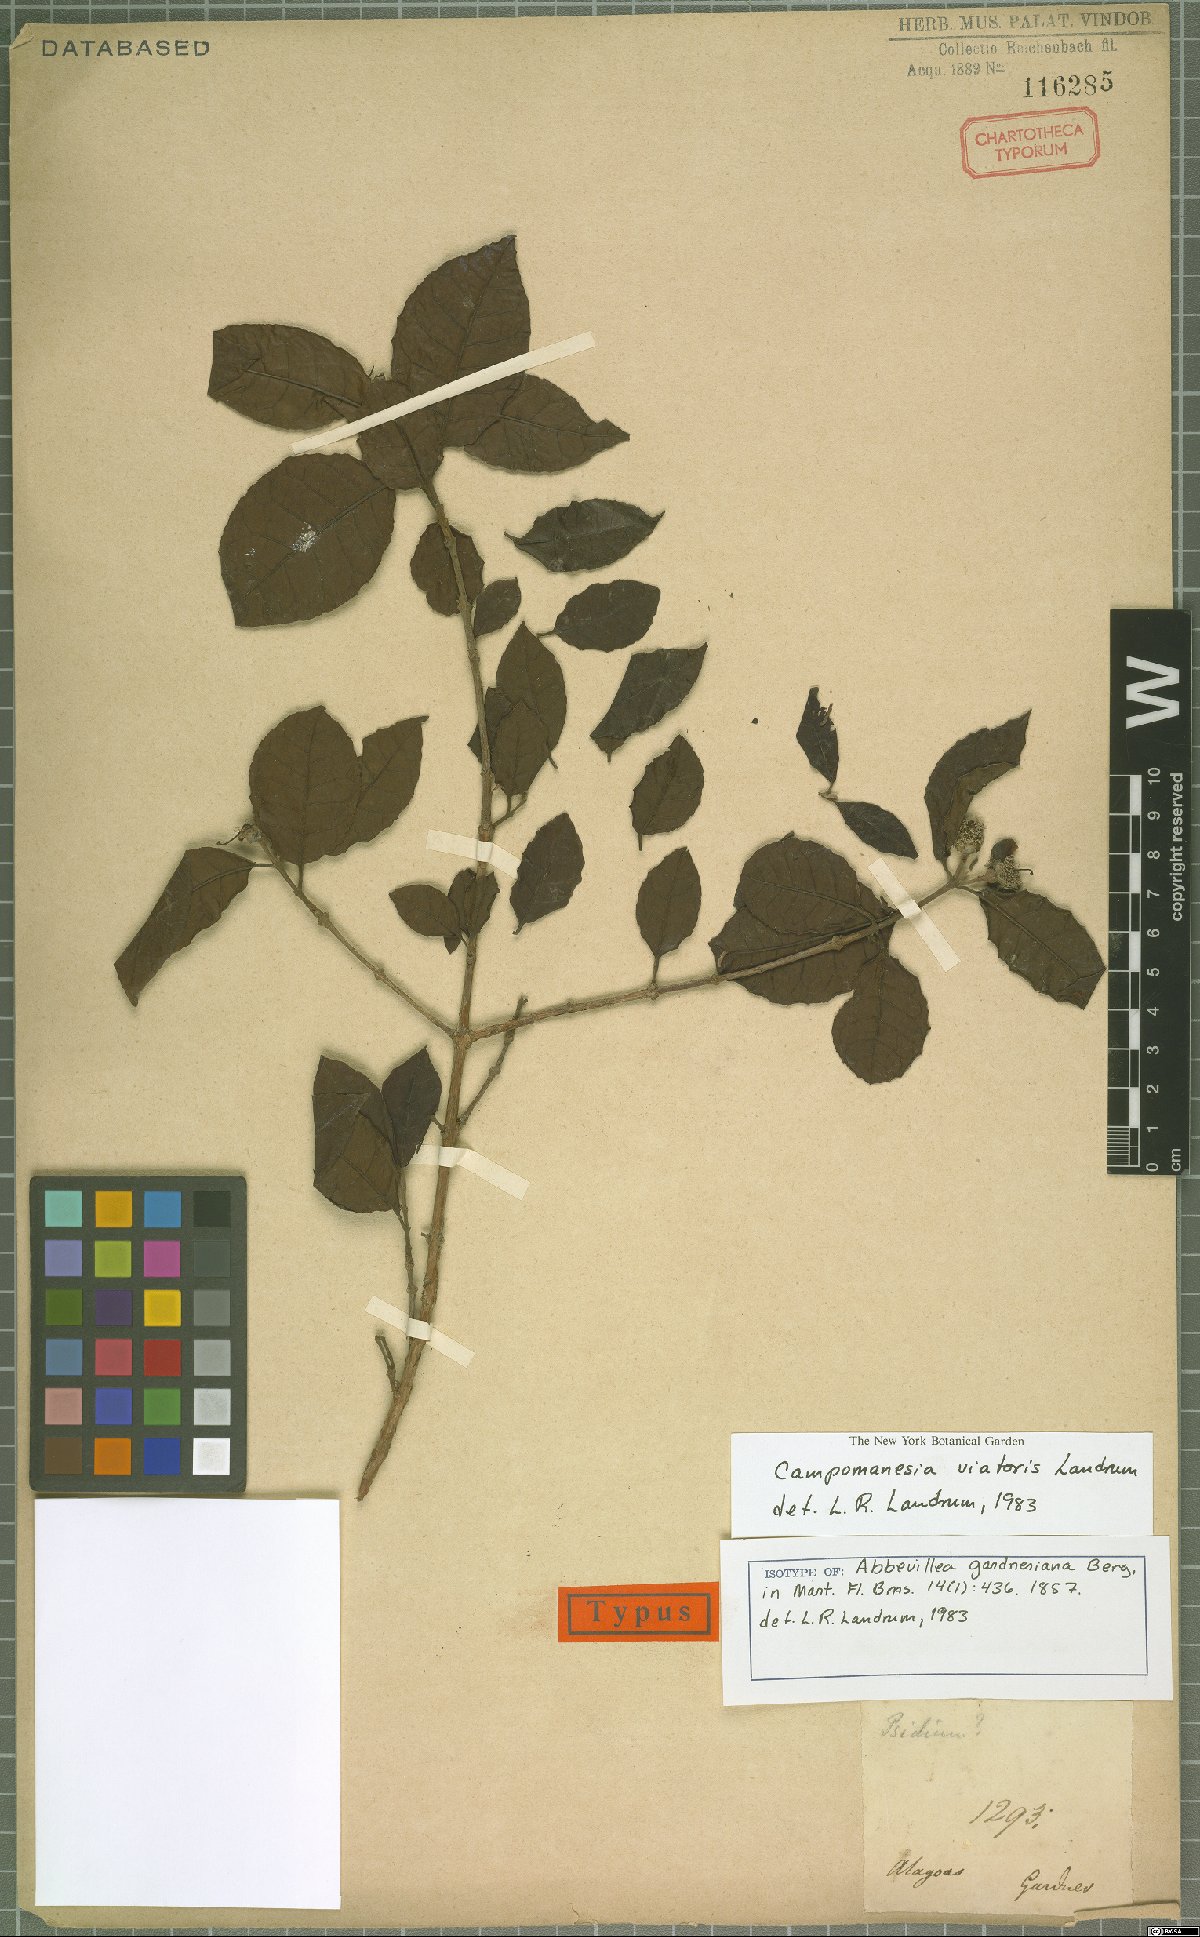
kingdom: Plantae
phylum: Tracheophyta
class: Magnoliopsida
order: Myrtales
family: Myrtaceae
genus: Campomanesia
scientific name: Campomanesia ilhoensis
